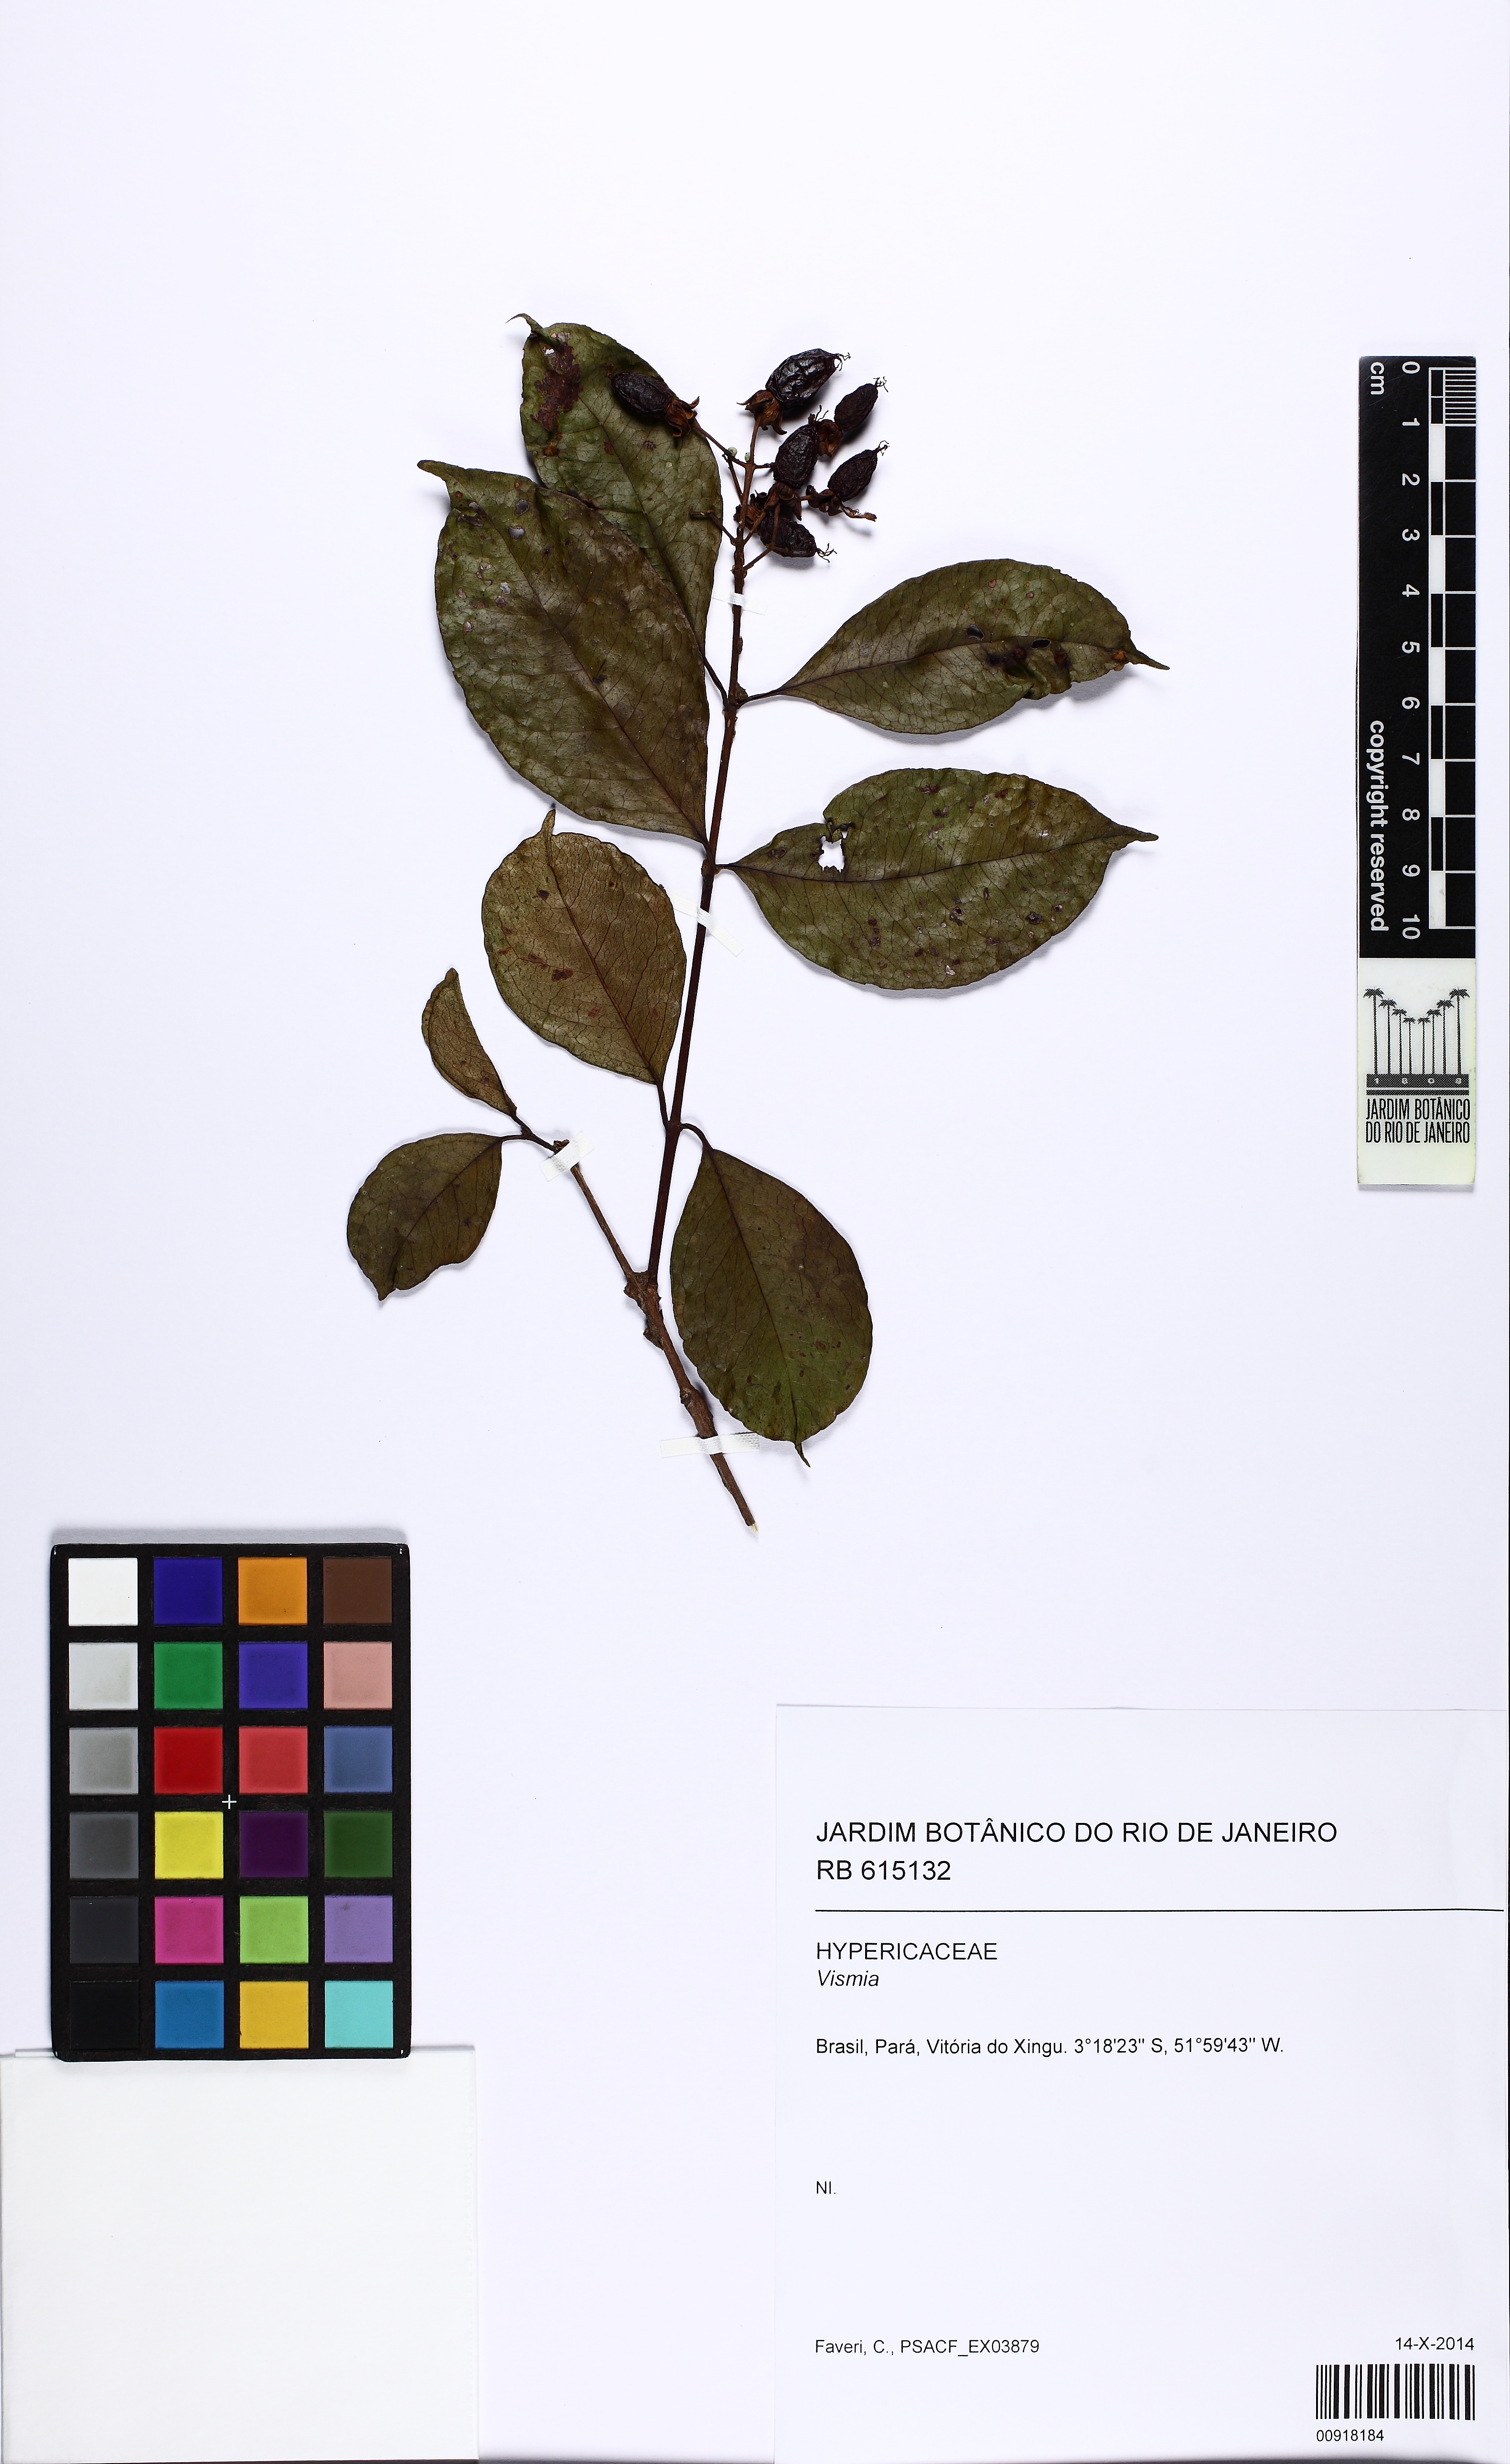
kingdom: Plantae
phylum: Tracheophyta
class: Magnoliopsida
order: Malpighiales
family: Hypericaceae
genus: Vismia
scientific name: Vismia cayennensis
